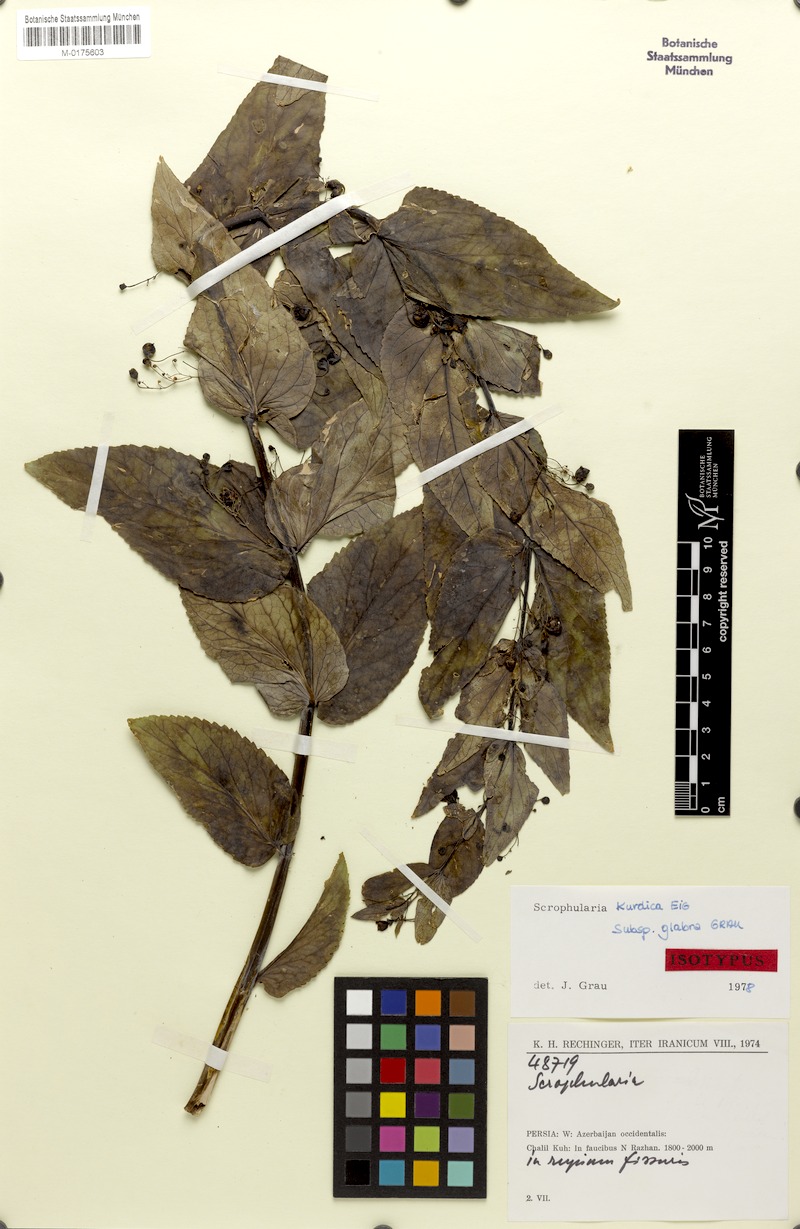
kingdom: Plantae
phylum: Tracheophyta
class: Magnoliopsida
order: Lamiales
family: Scrophulariaceae
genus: Scrophularia
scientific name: Scrophularia kurdica
